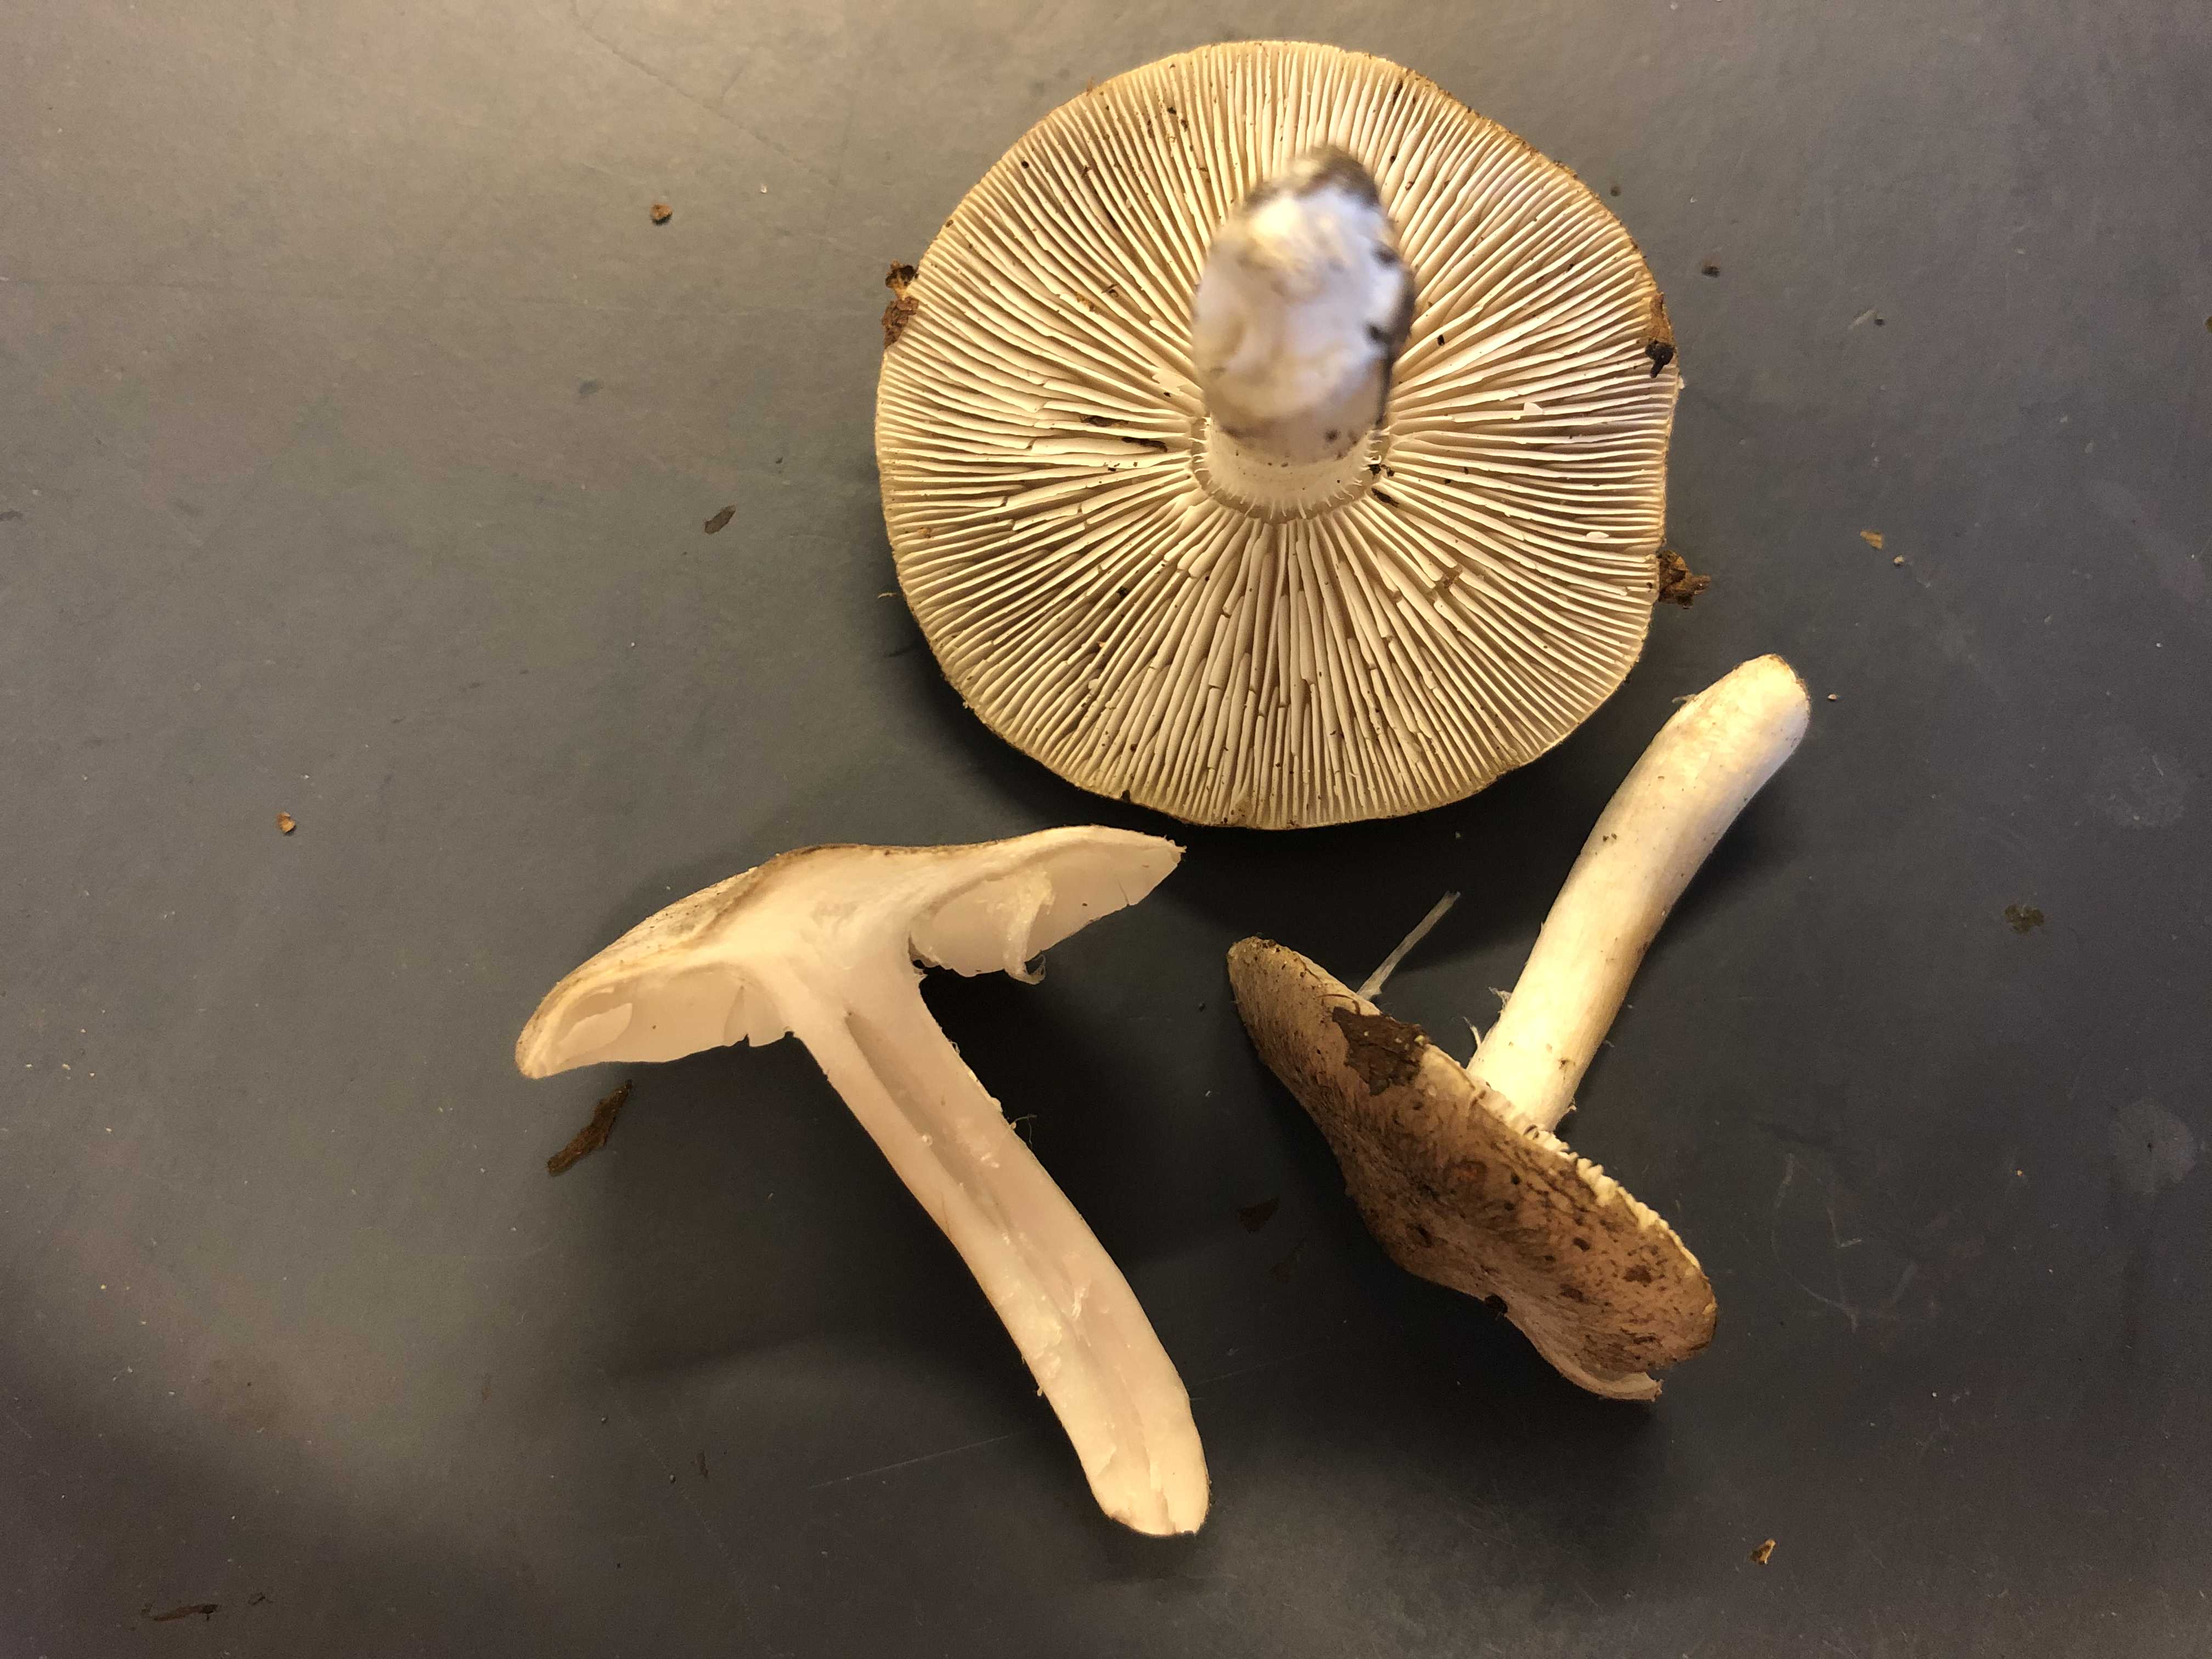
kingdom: Fungi
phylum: Basidiomycota
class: Agaricomycetes
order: Agaricales
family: Tricholomataceae
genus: Tricholoma
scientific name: Tricholoma
